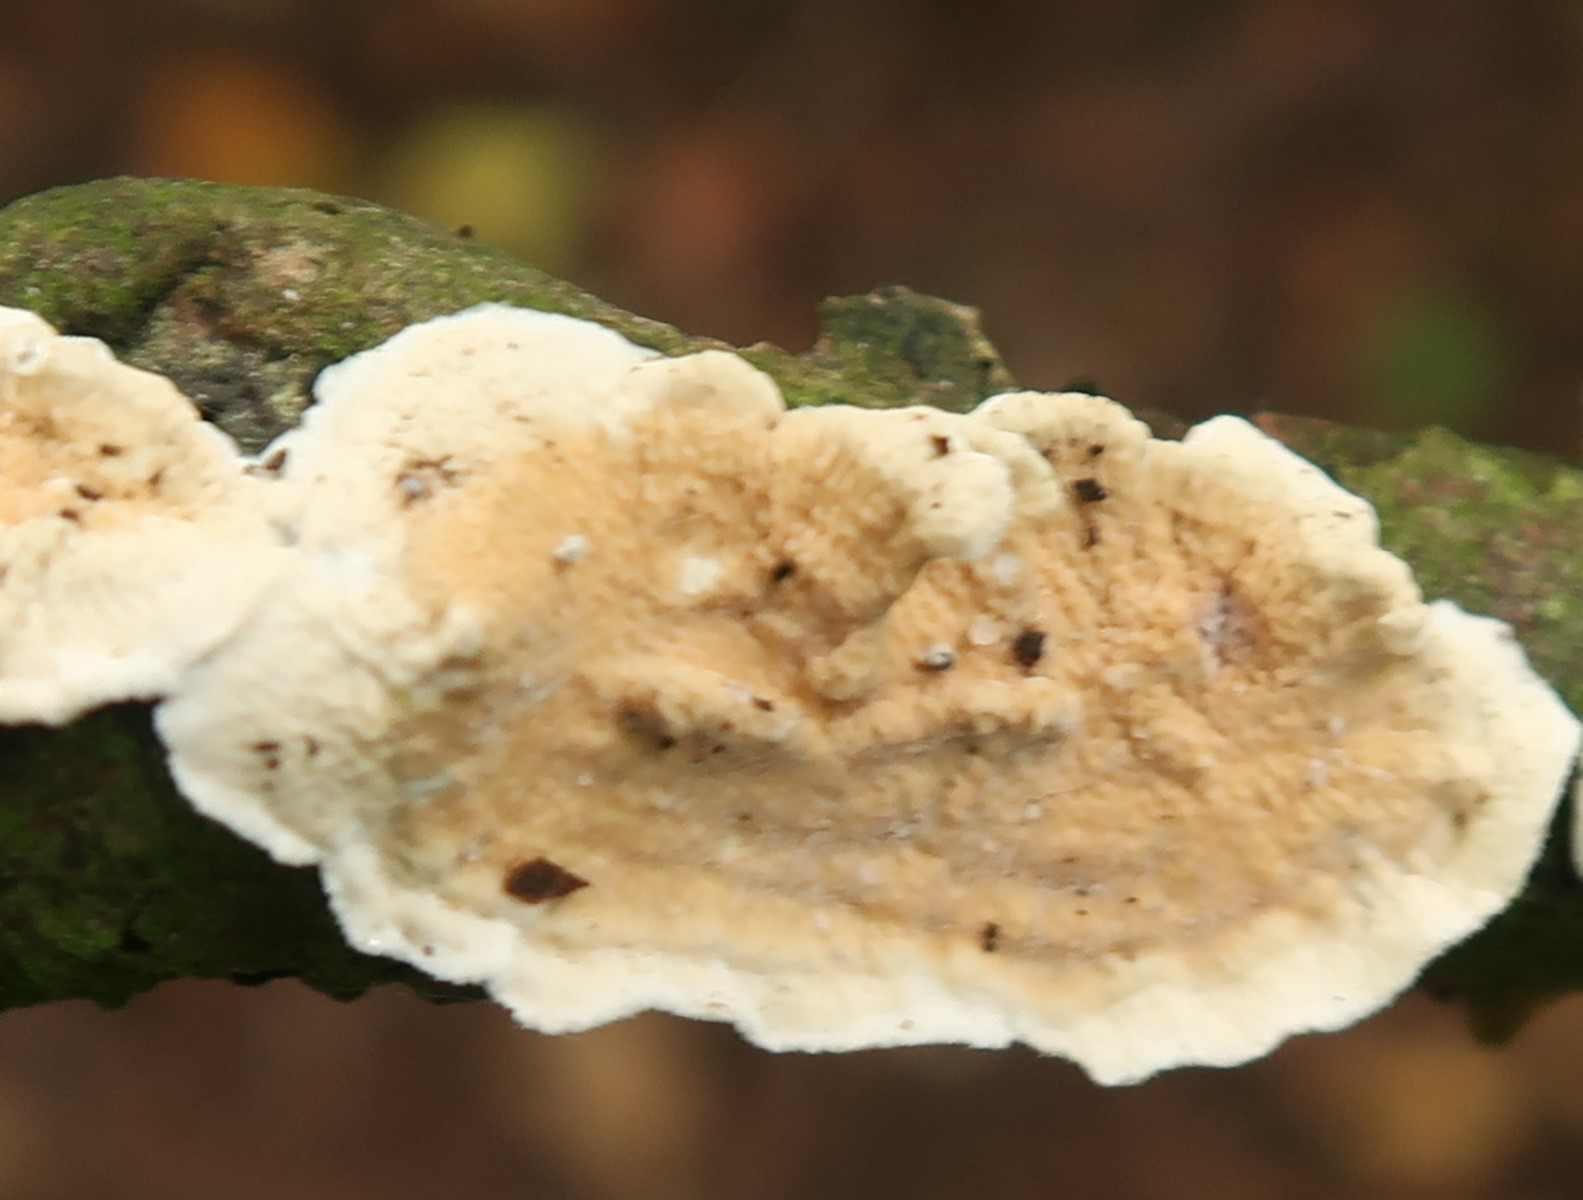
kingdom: Fungi
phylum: Basidiomycota
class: Agaricomycetes
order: Polyporales
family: Irpicaceae
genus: Byssomerulius
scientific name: Byssomerulius corium
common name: læder-åresvamp
